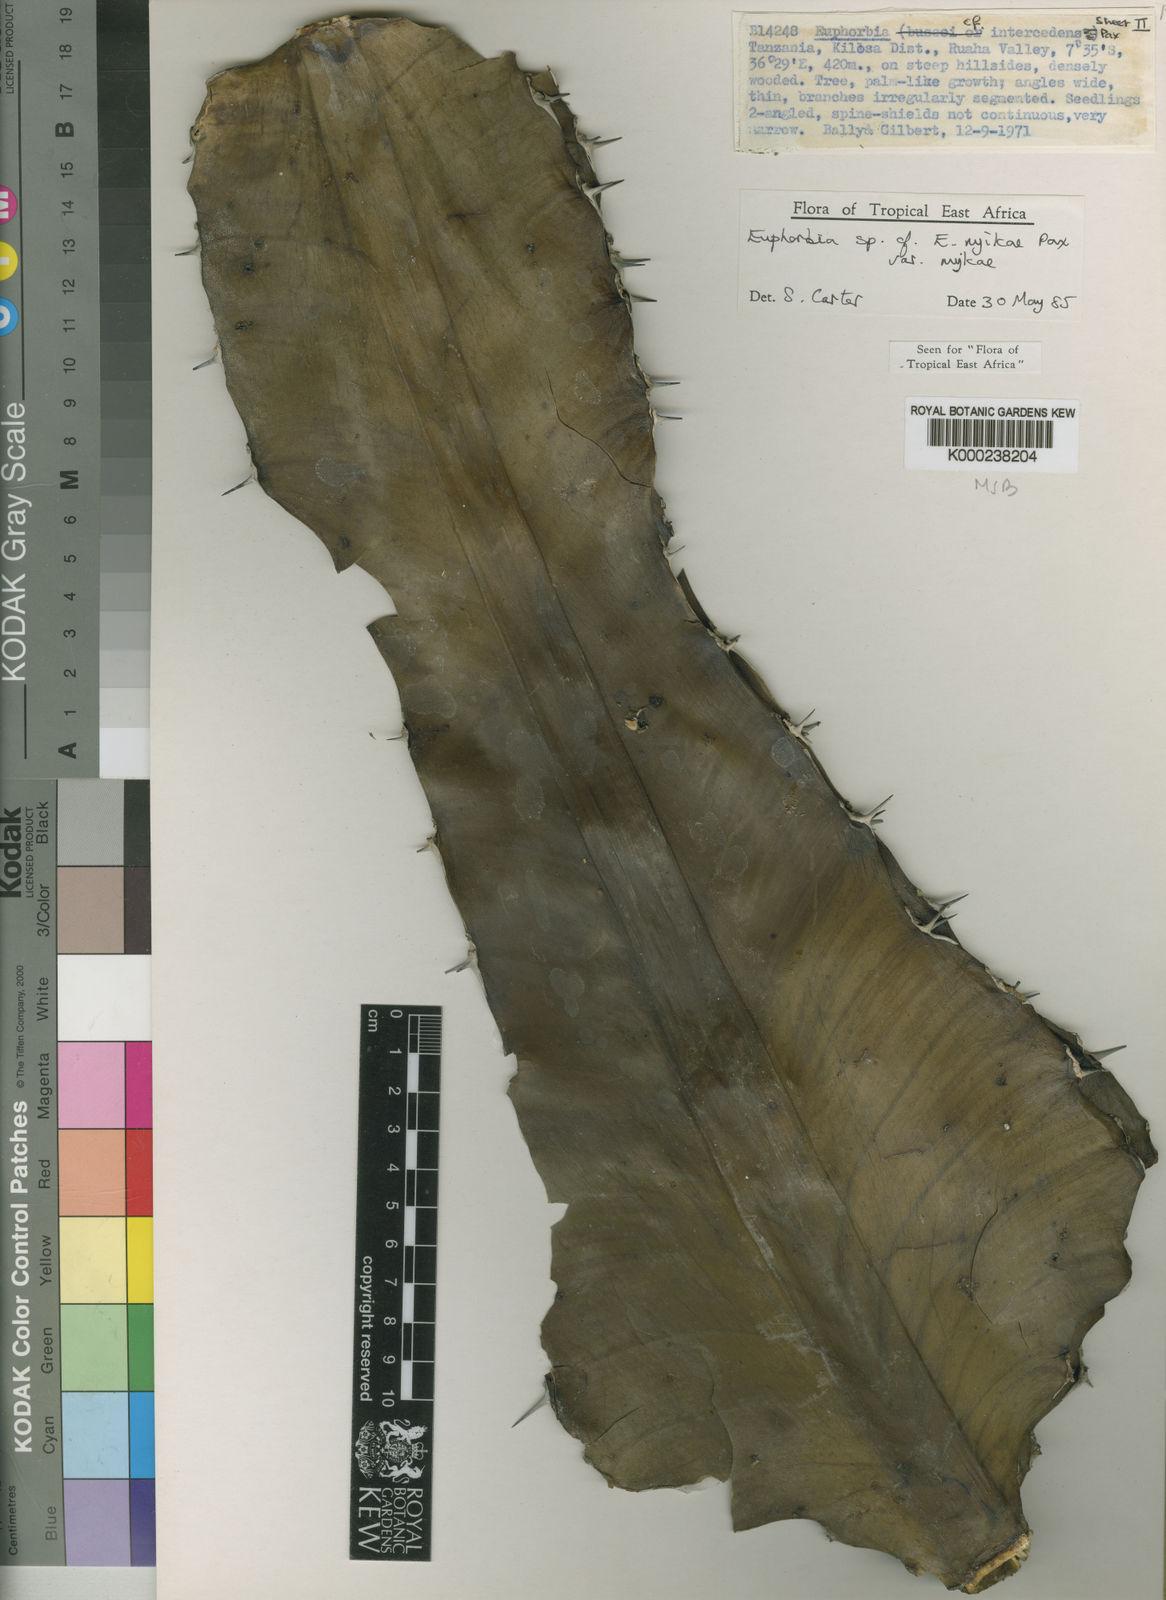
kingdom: Plantae
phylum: Tracheophyta
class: Magnoliopsida
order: Malpighiales
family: Euphorbiaceae
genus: Euphorbia
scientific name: Euphorbia nyikae
